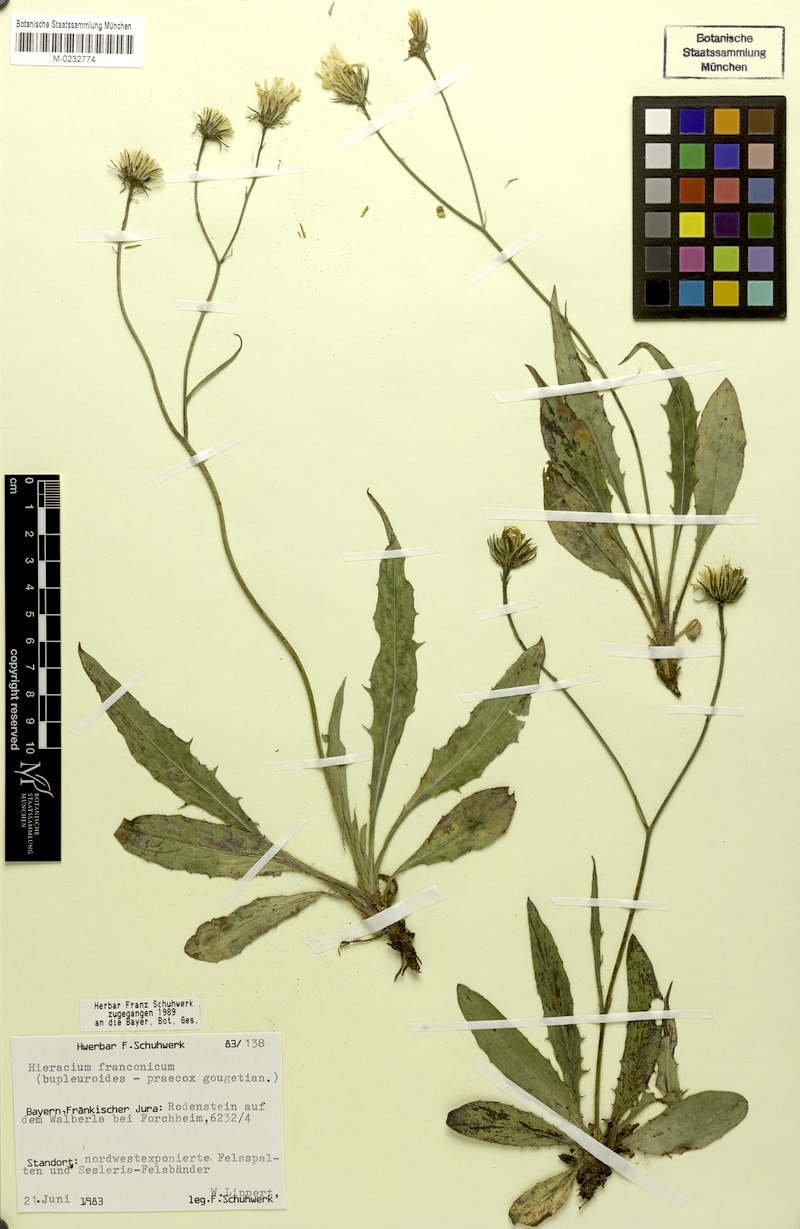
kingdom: Plantae
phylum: Tracheophyta
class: Magnoliopsida
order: Asterales
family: Asteraceae
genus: Hieracium
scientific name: Hieracium franconicum
